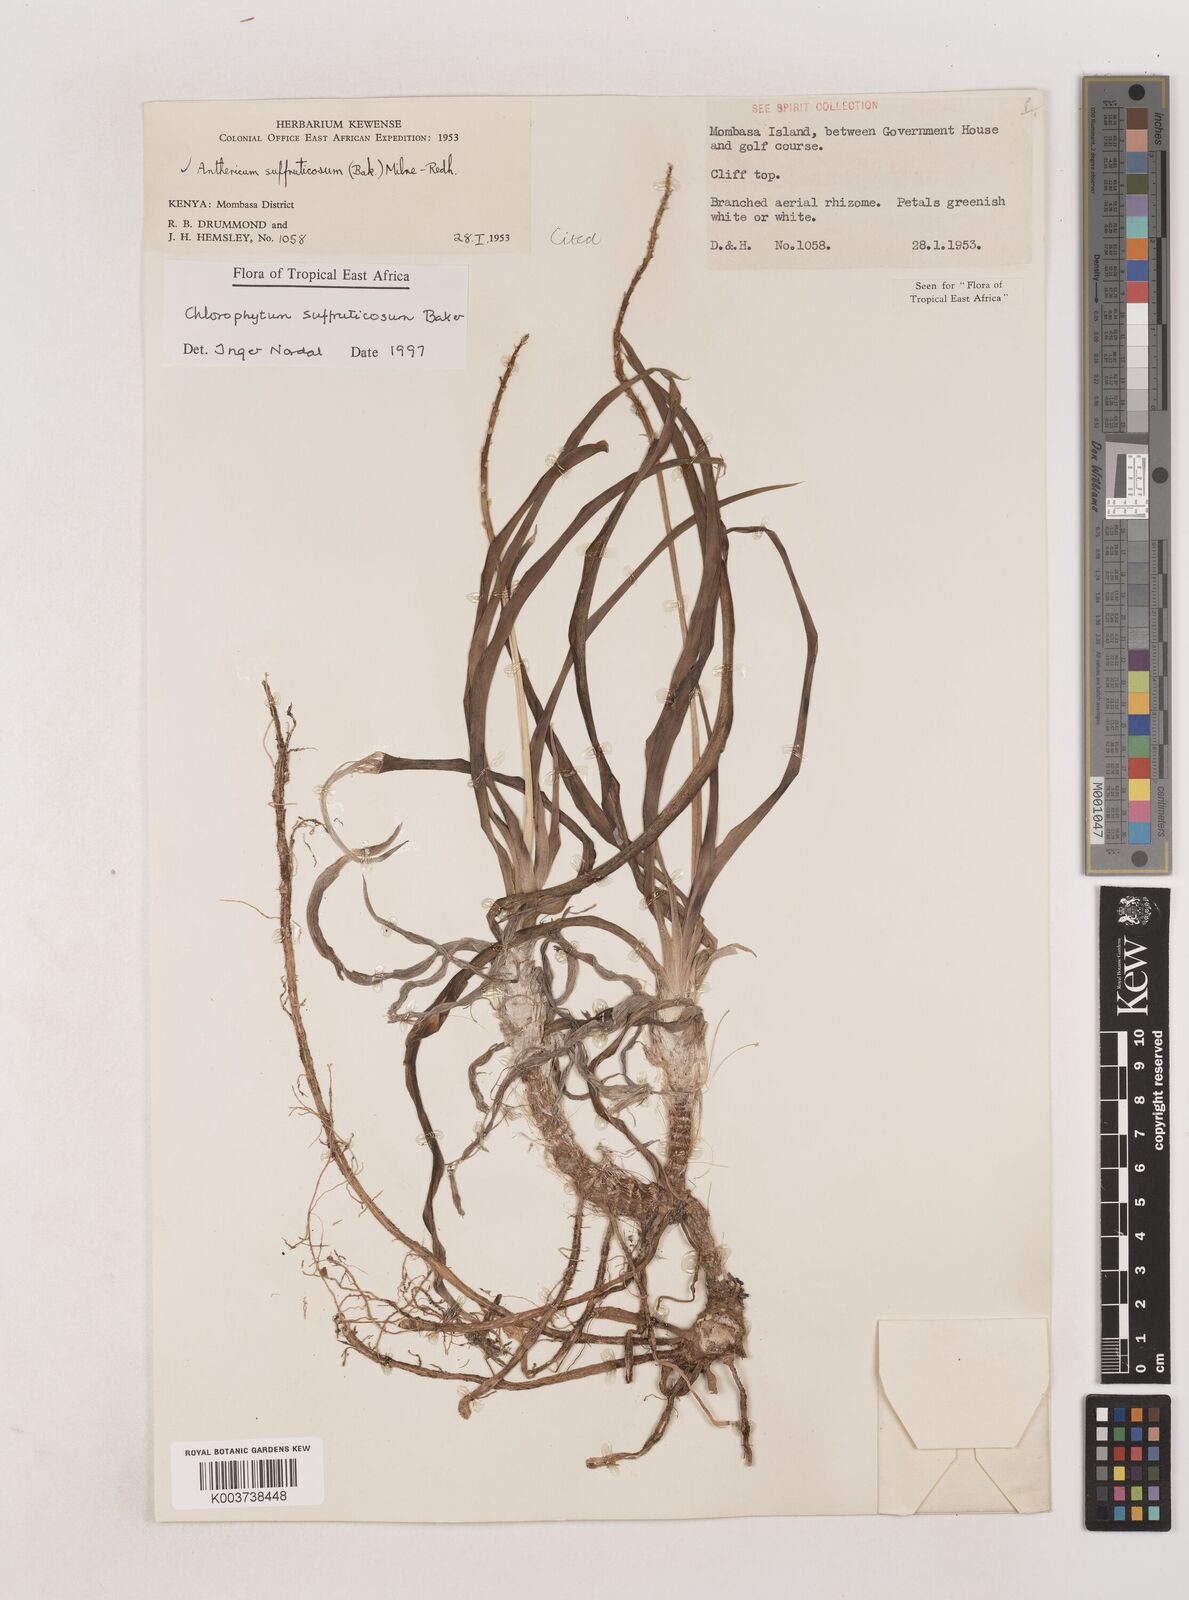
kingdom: Plantae
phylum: Tracheophyta
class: Liliopsida
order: Asparagales
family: Asparagaceae
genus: Chlorophytum
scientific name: Chlorophytum suffruticosum
